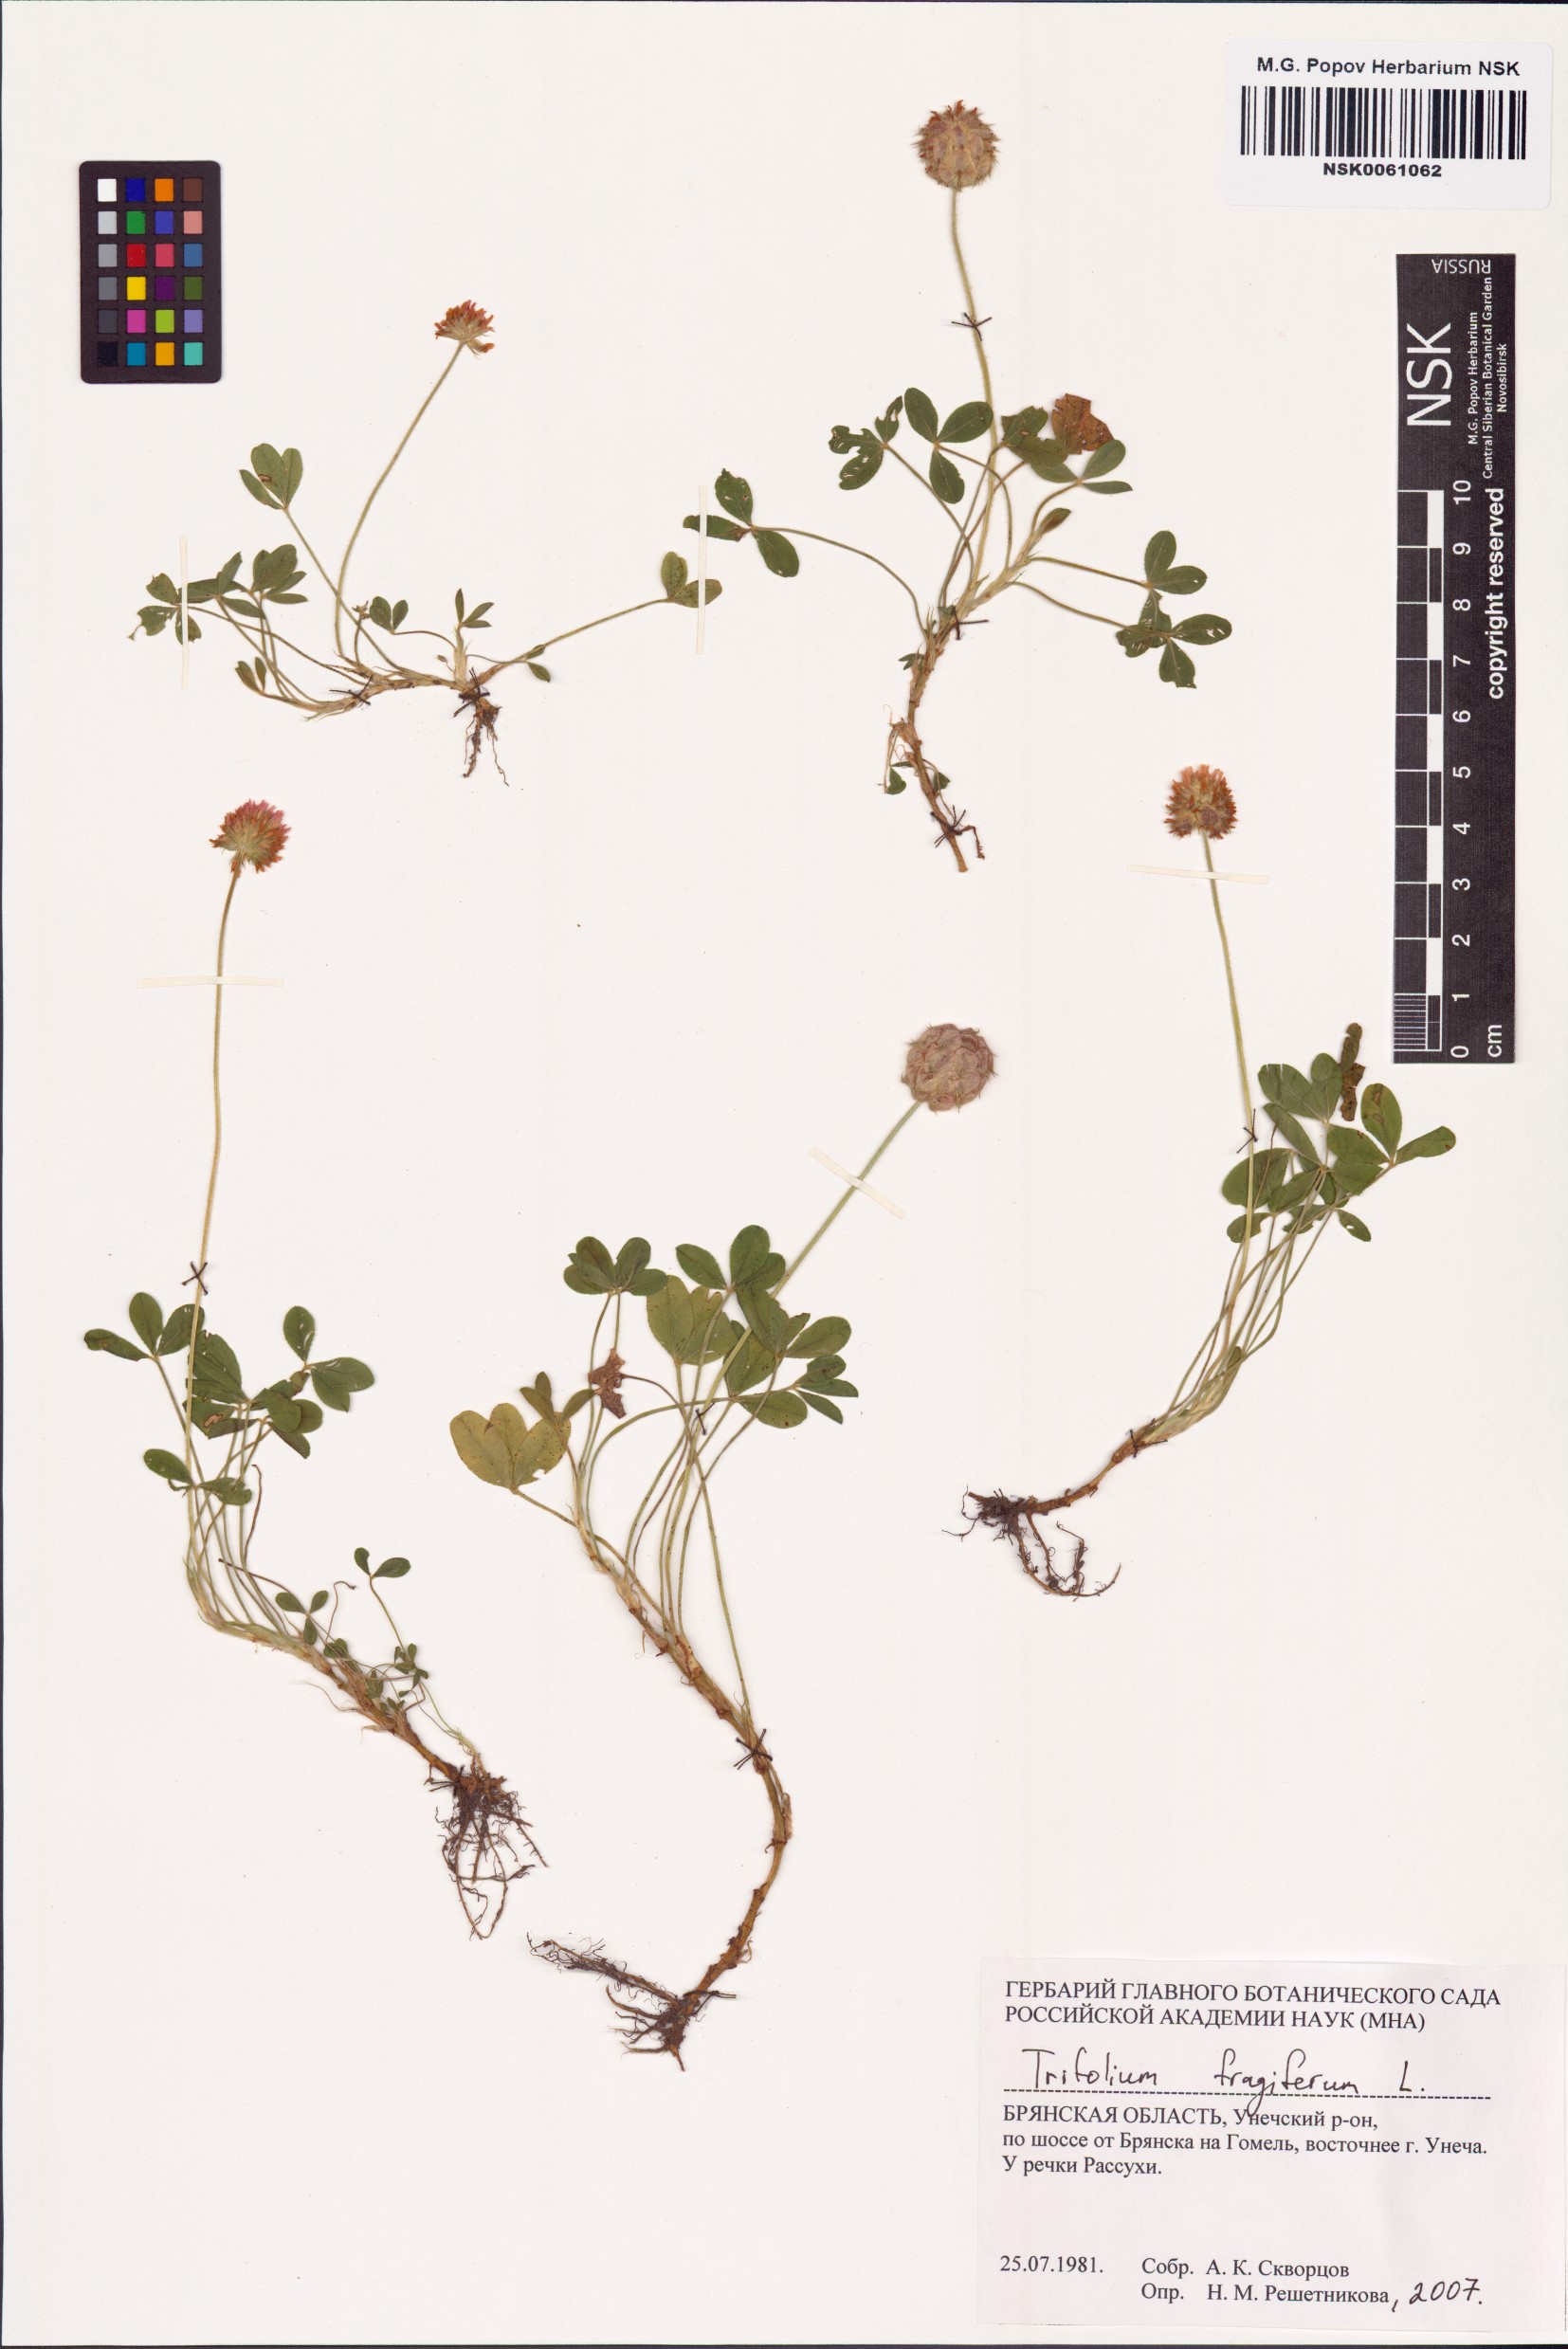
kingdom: Plantae
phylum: Tracheophyta
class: Magnoliopsida
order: Fabales
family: Fabaceae
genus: Trifolium
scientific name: Trifolium fragiferum
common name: Strawberry clover
